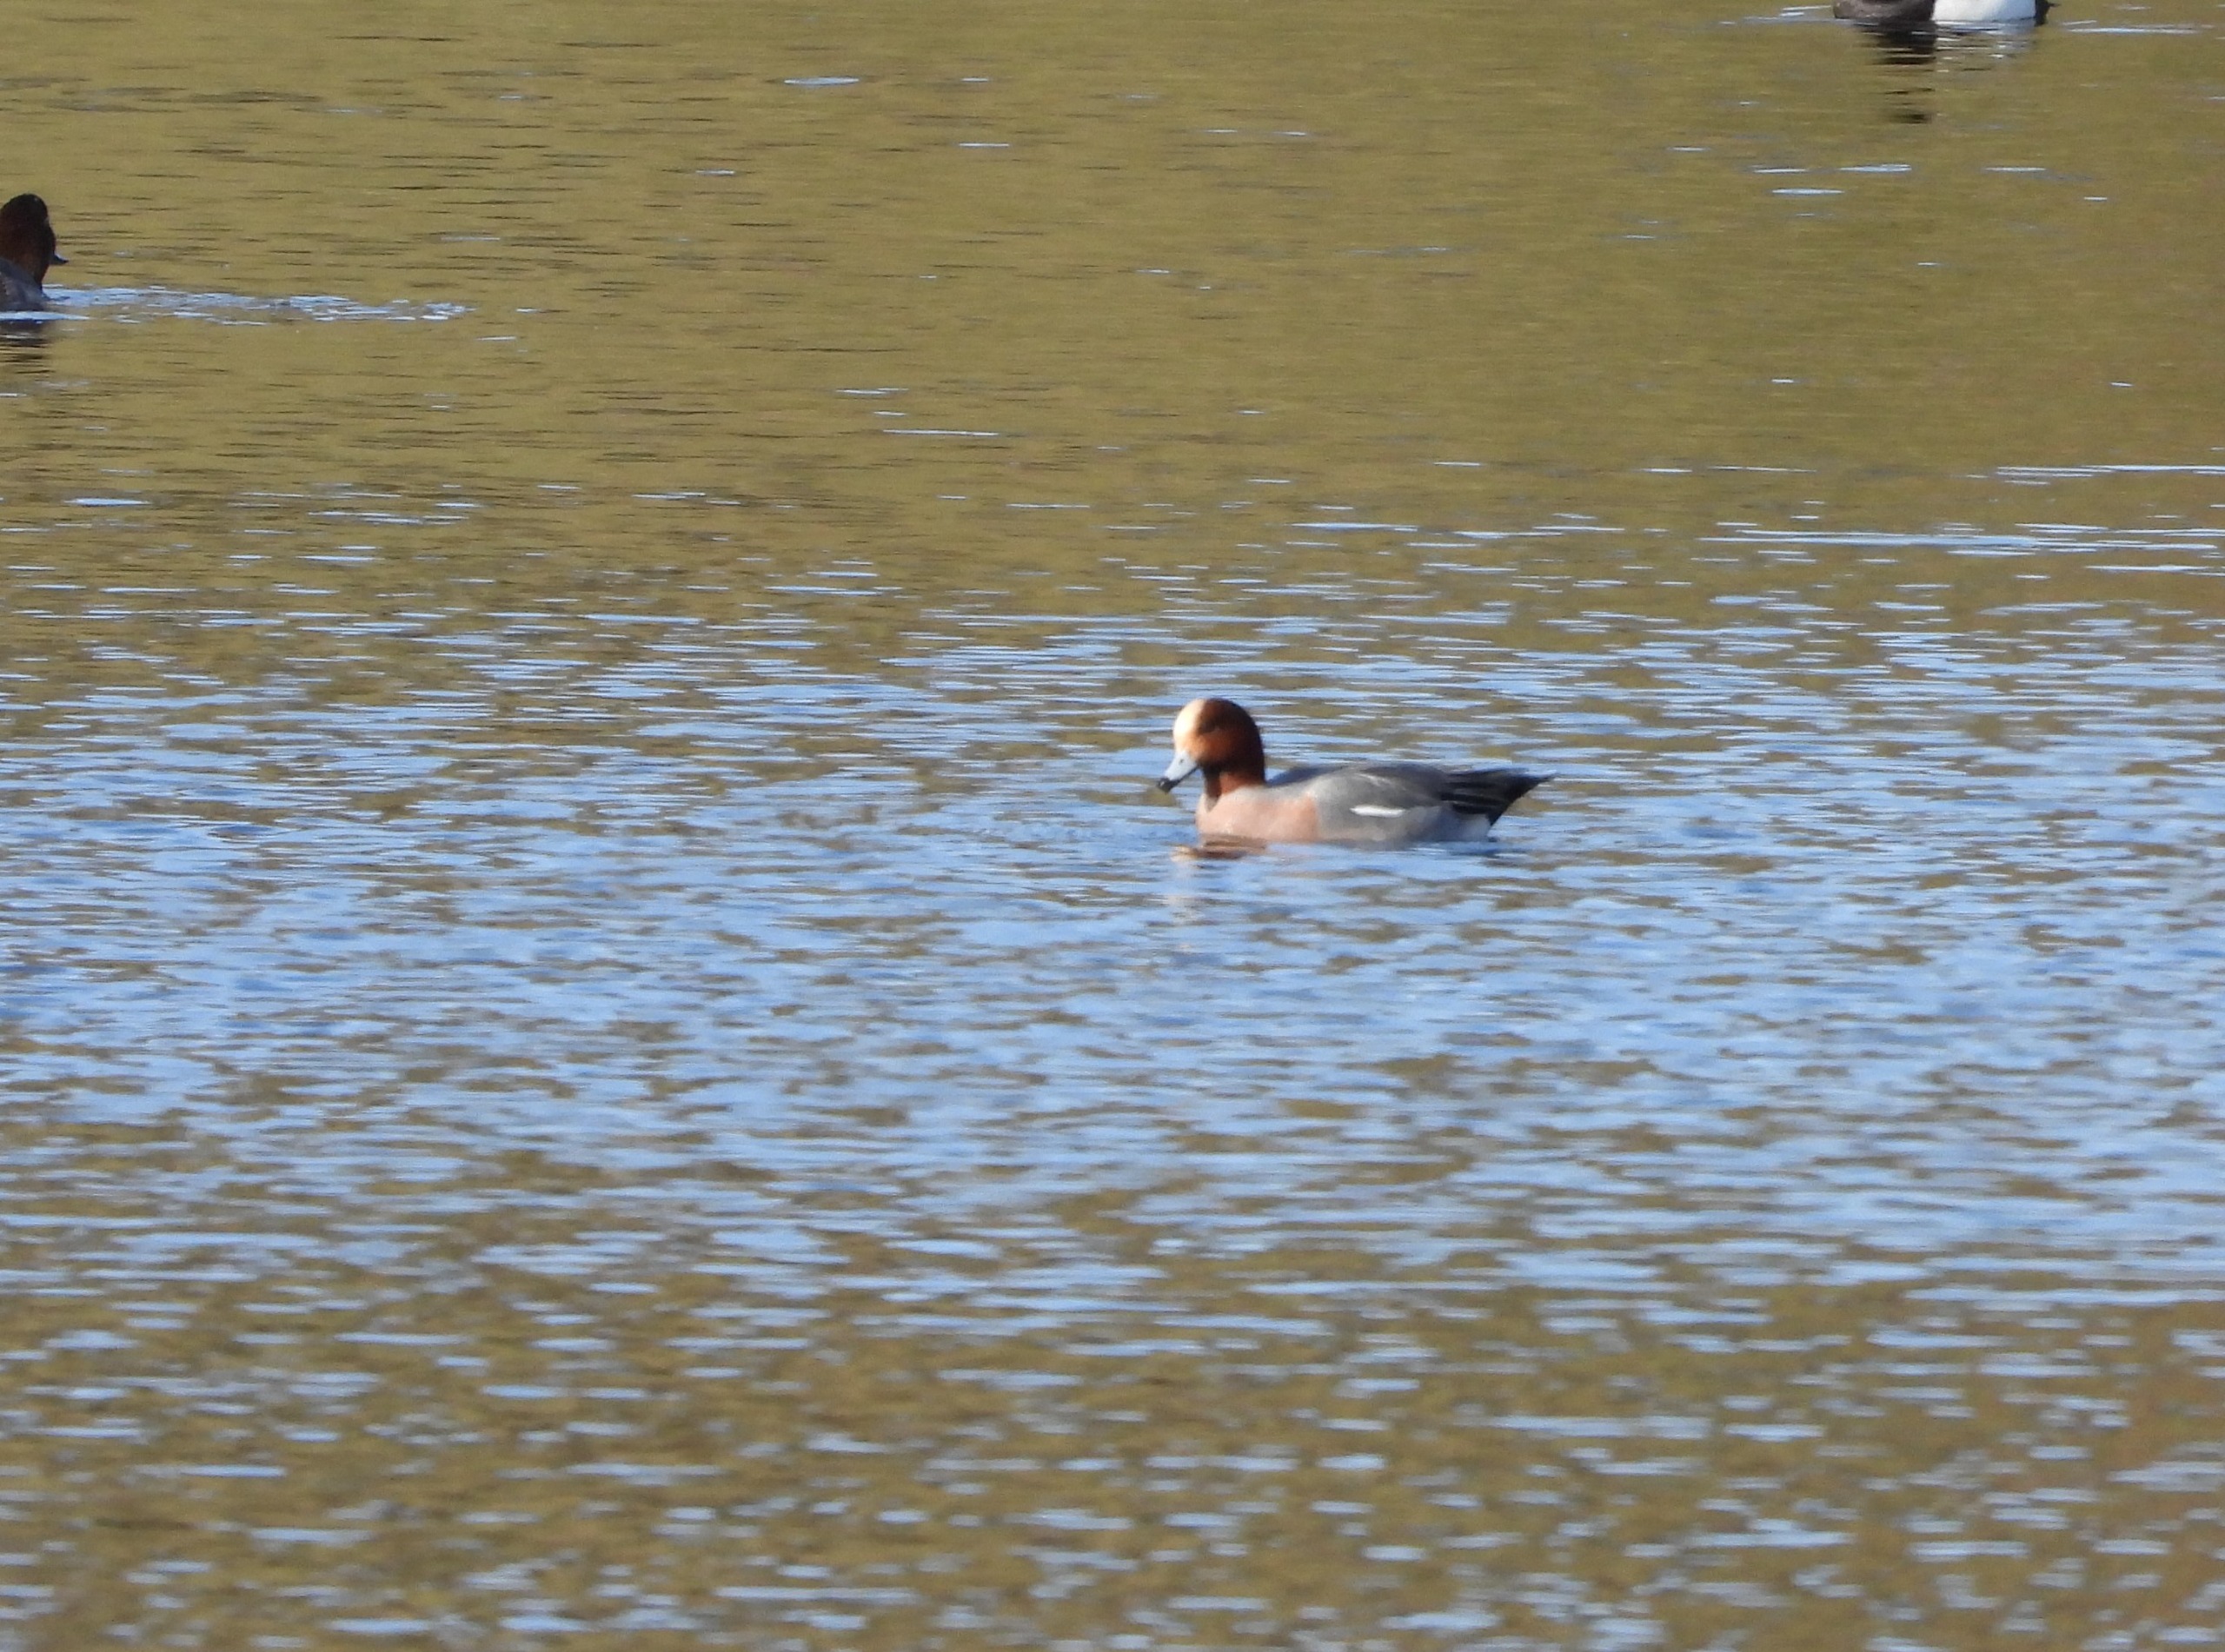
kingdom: Animalia
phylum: Chordata
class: Aves
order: Anseriformes
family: Anatidae
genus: Mareca
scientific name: Mareca penelope
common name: Pibeand
